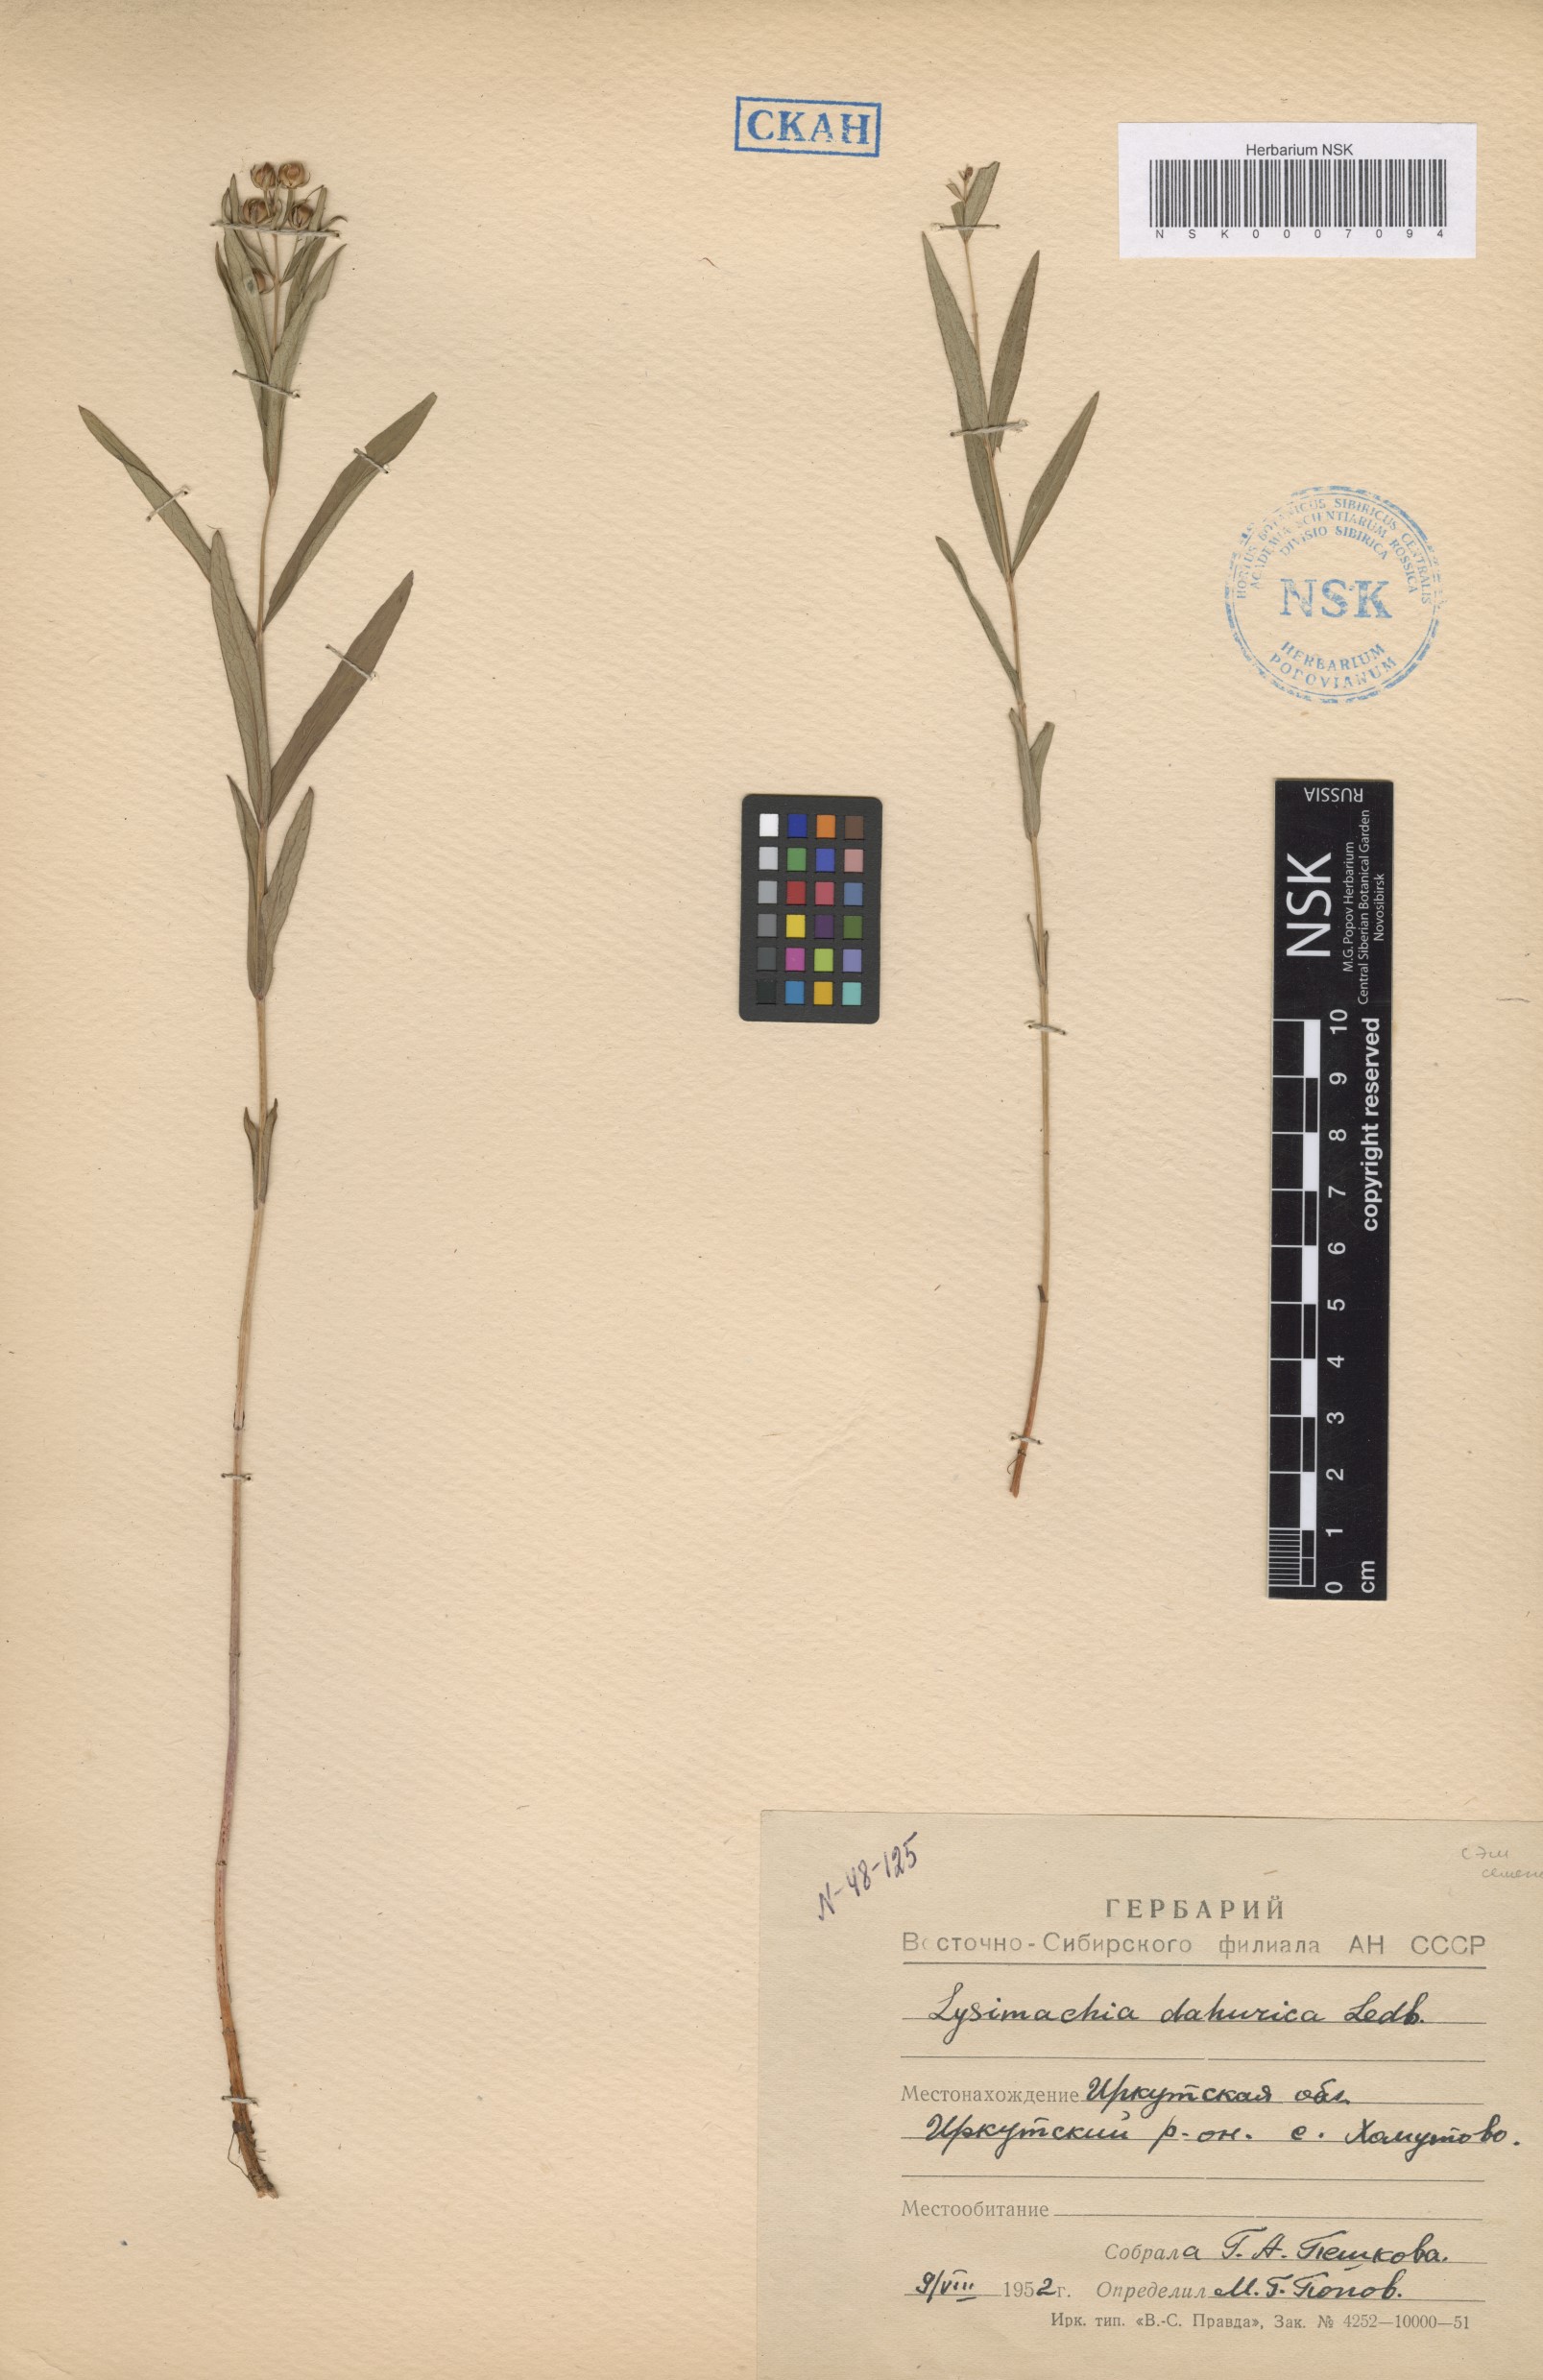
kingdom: Plantae
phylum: Tracheophyta
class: Magnoliopsida
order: Ericales
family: Primulaceae
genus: Lysimachia
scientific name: Lysimachia davurica
